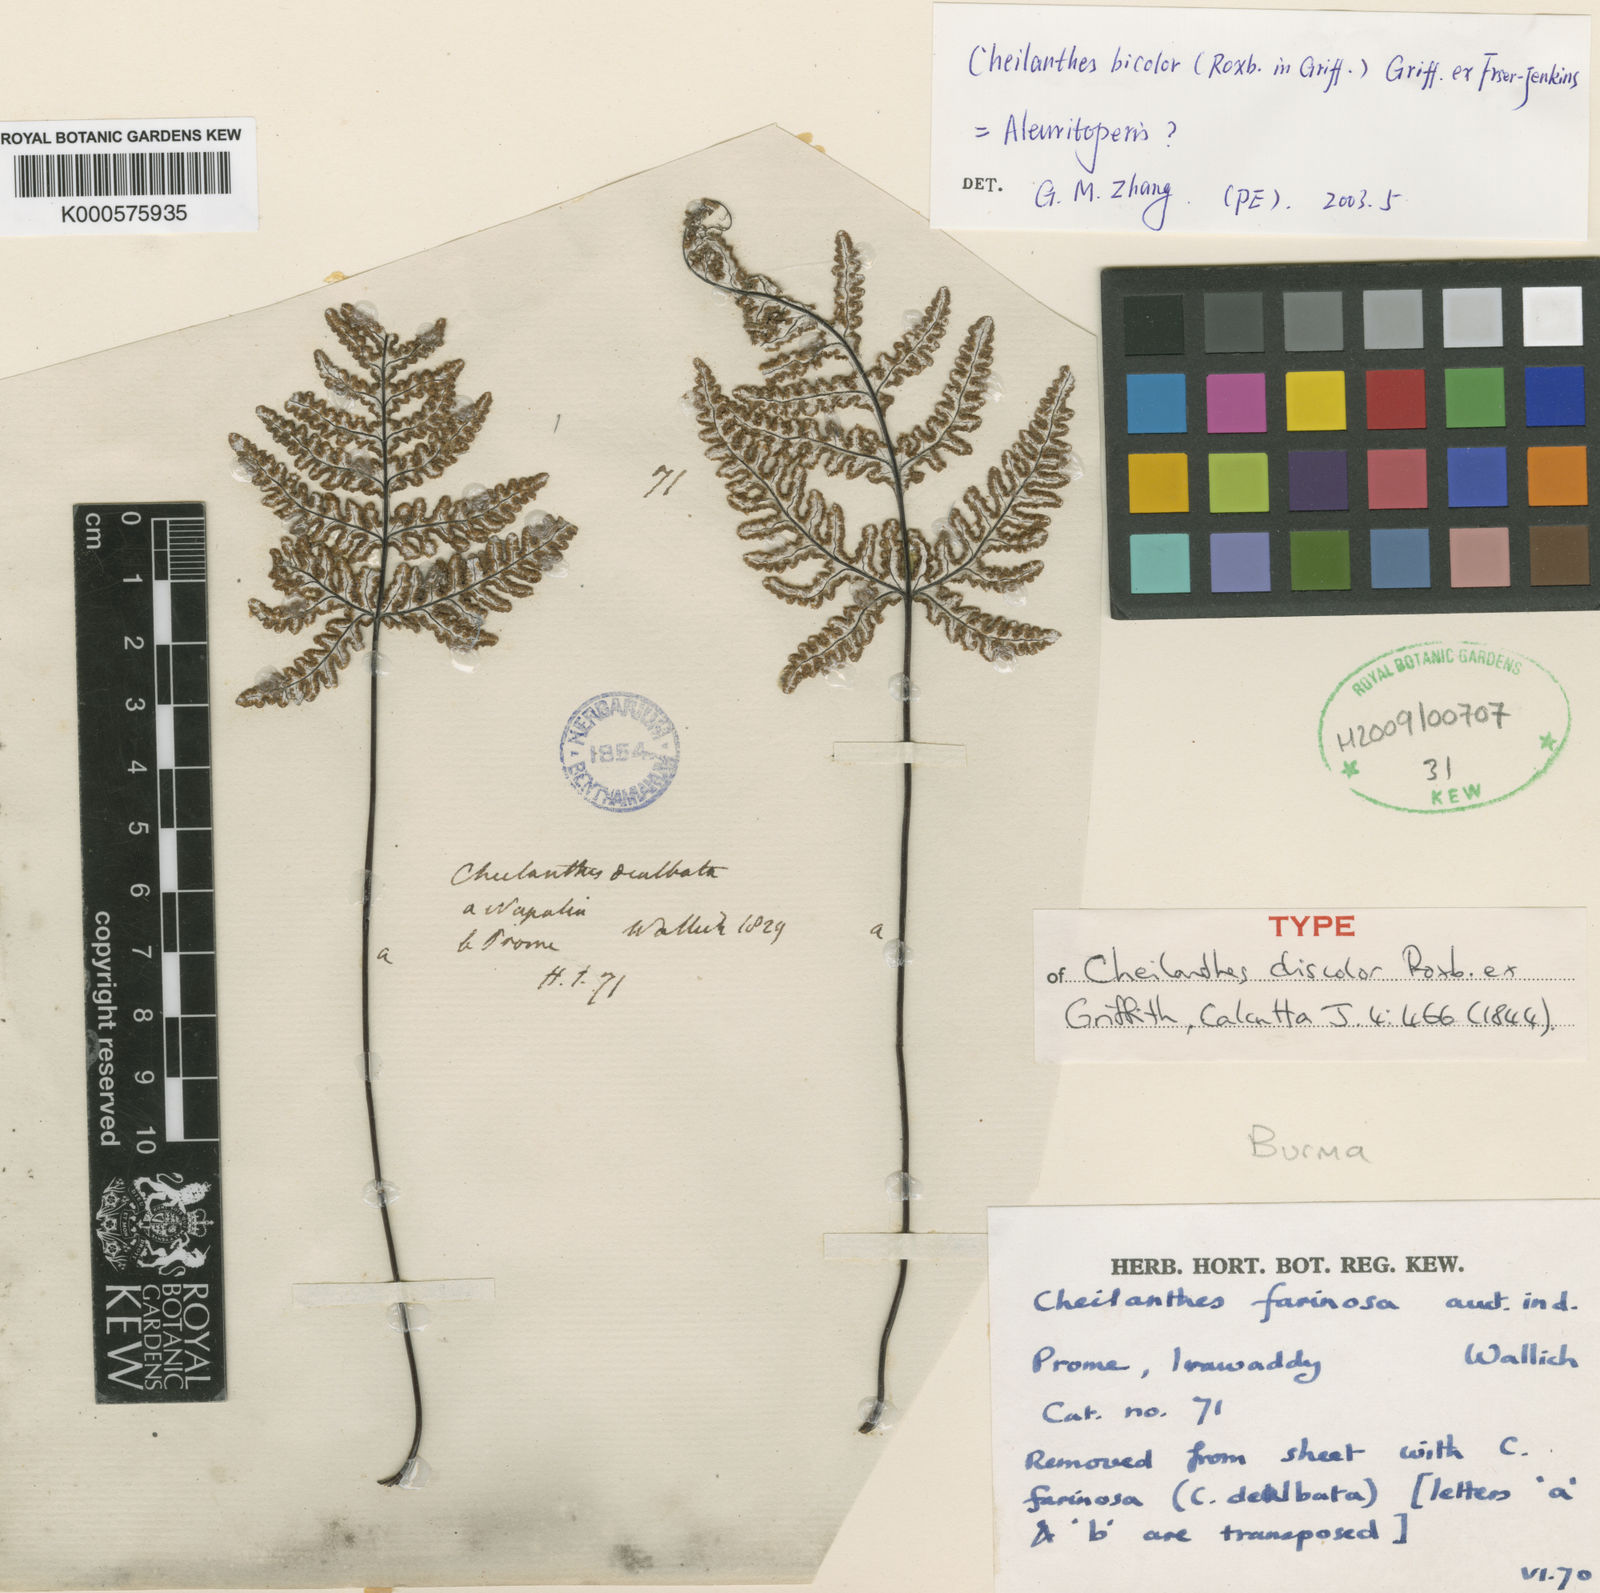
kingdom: Plantae
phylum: Tracheophyta
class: Polypodiopsida
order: Polypodiales
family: Pteridaceae
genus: Aleuritopteris
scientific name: Aleuritopteris bicolor
